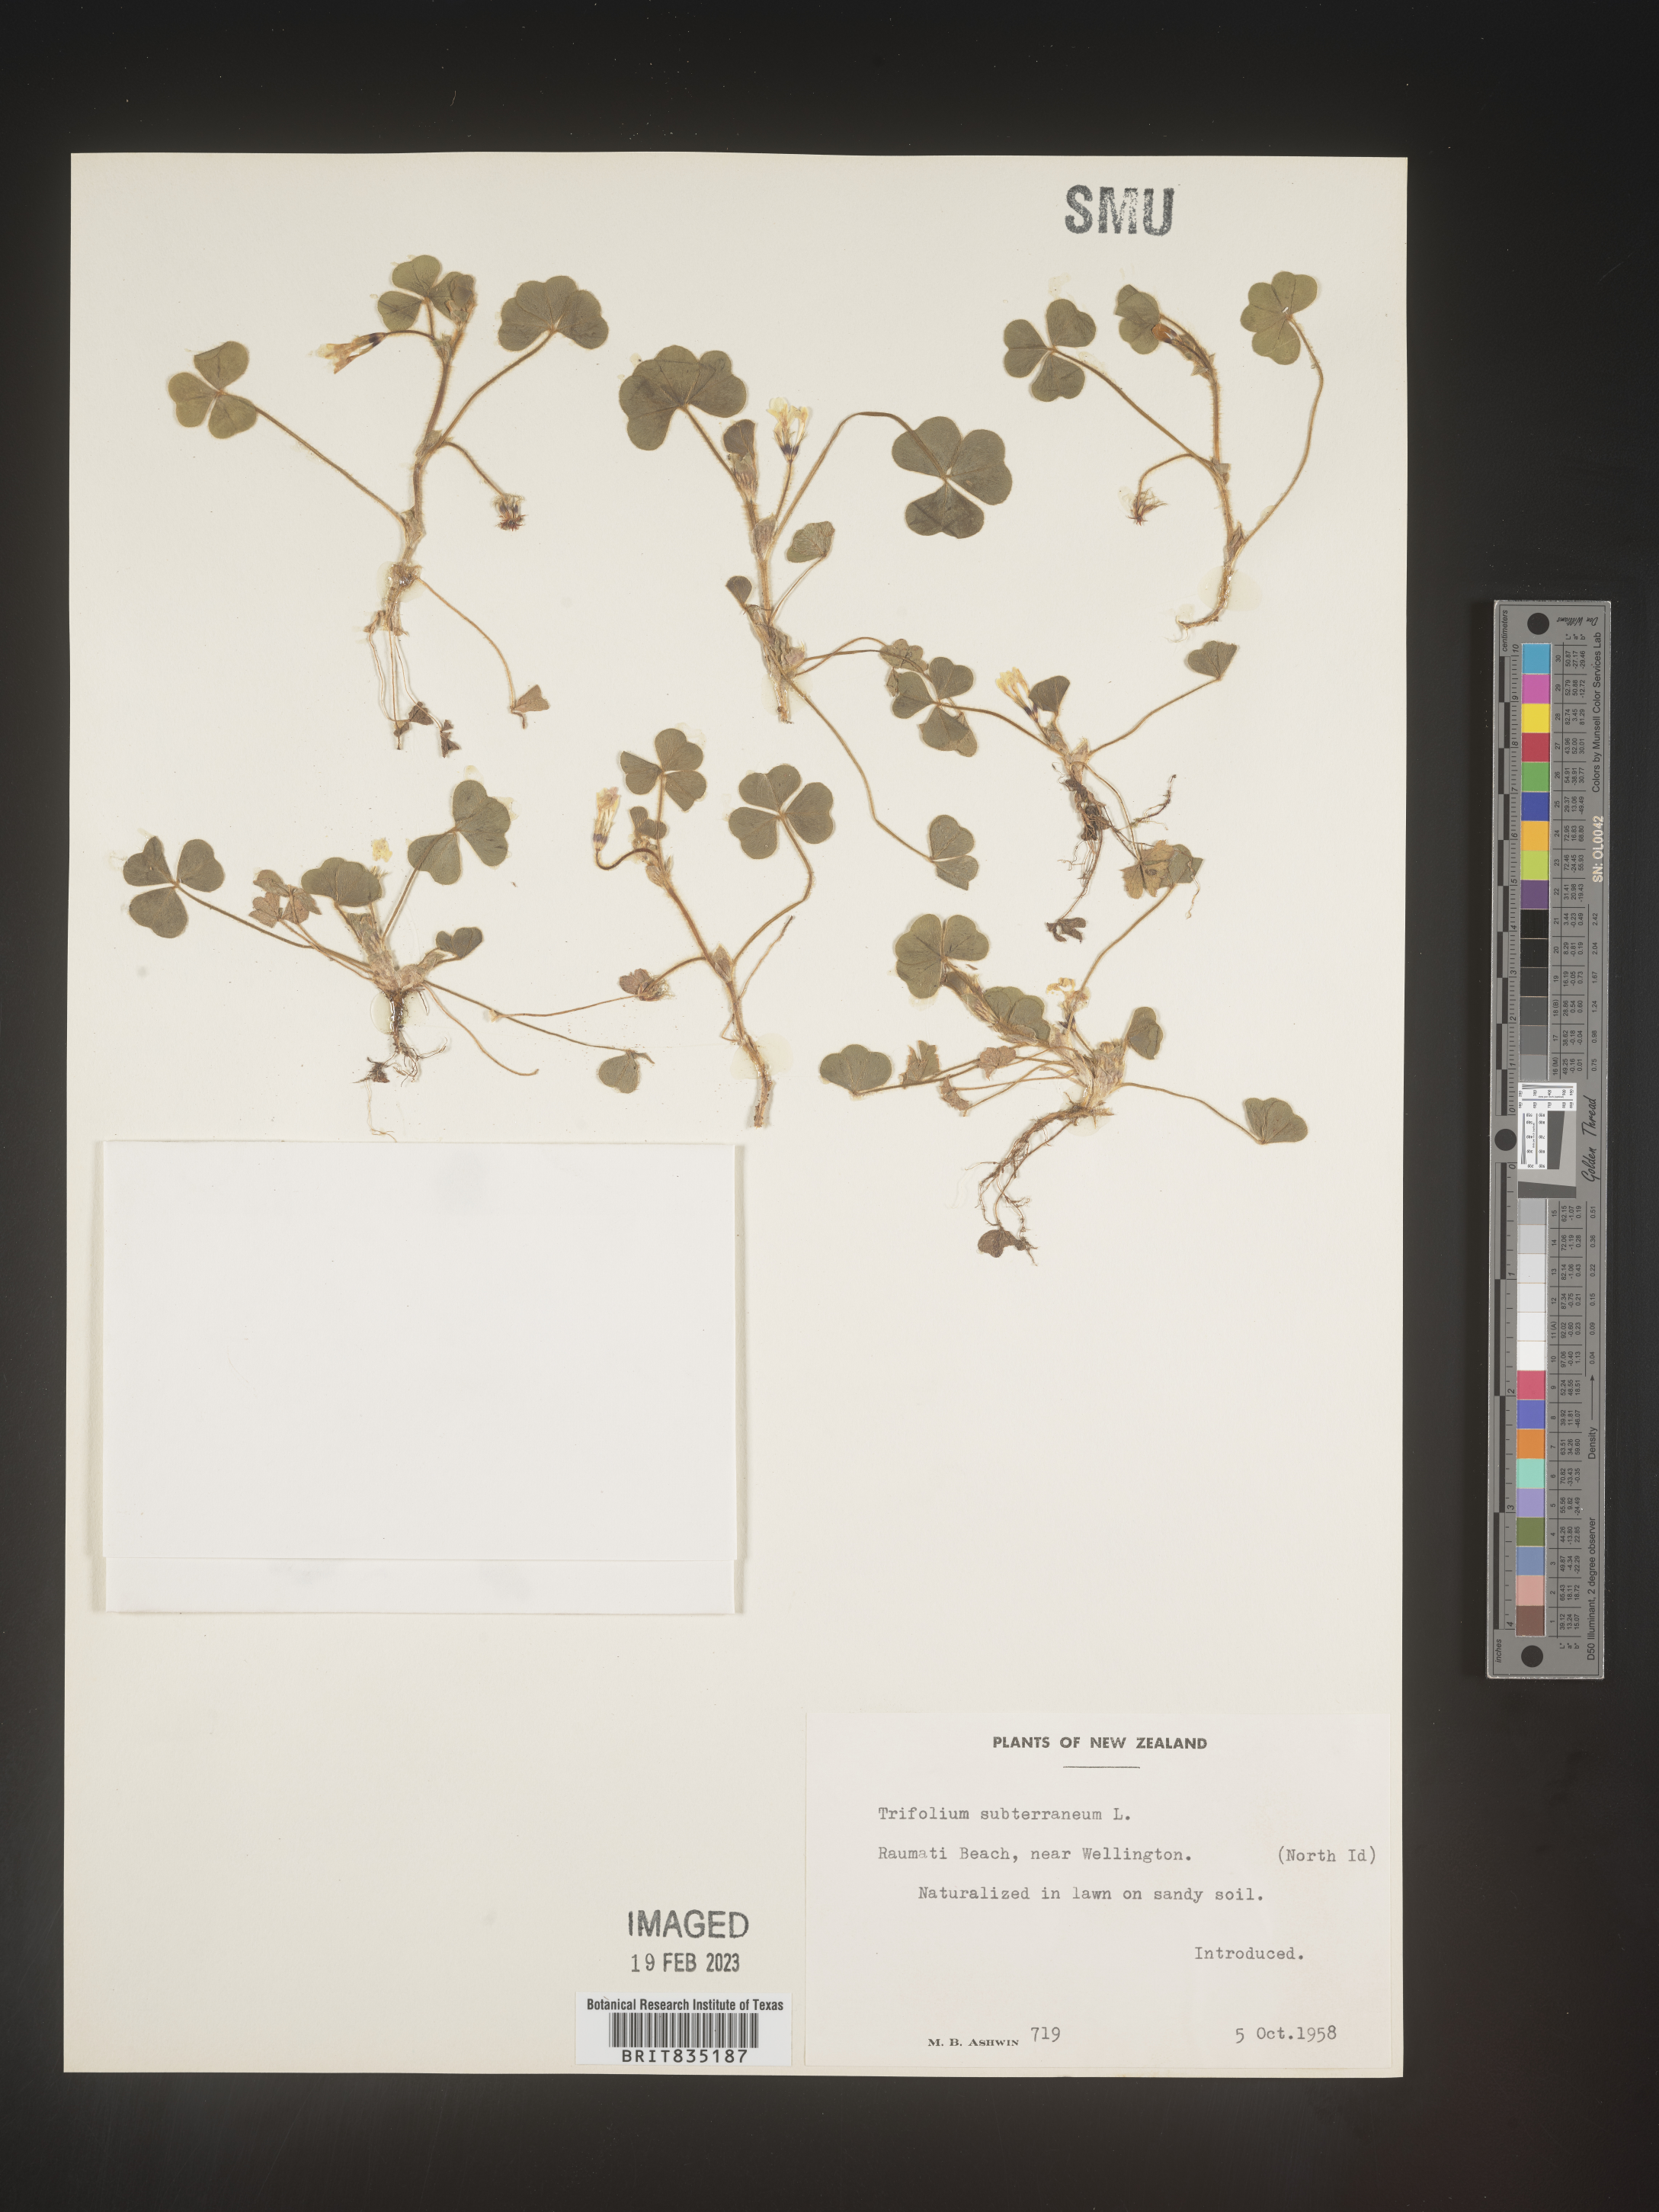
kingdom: Plantae
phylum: Tracheophyta
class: Magnoliopsida
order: Fabales
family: Fabaceae
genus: Trifolium
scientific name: Trifolium
